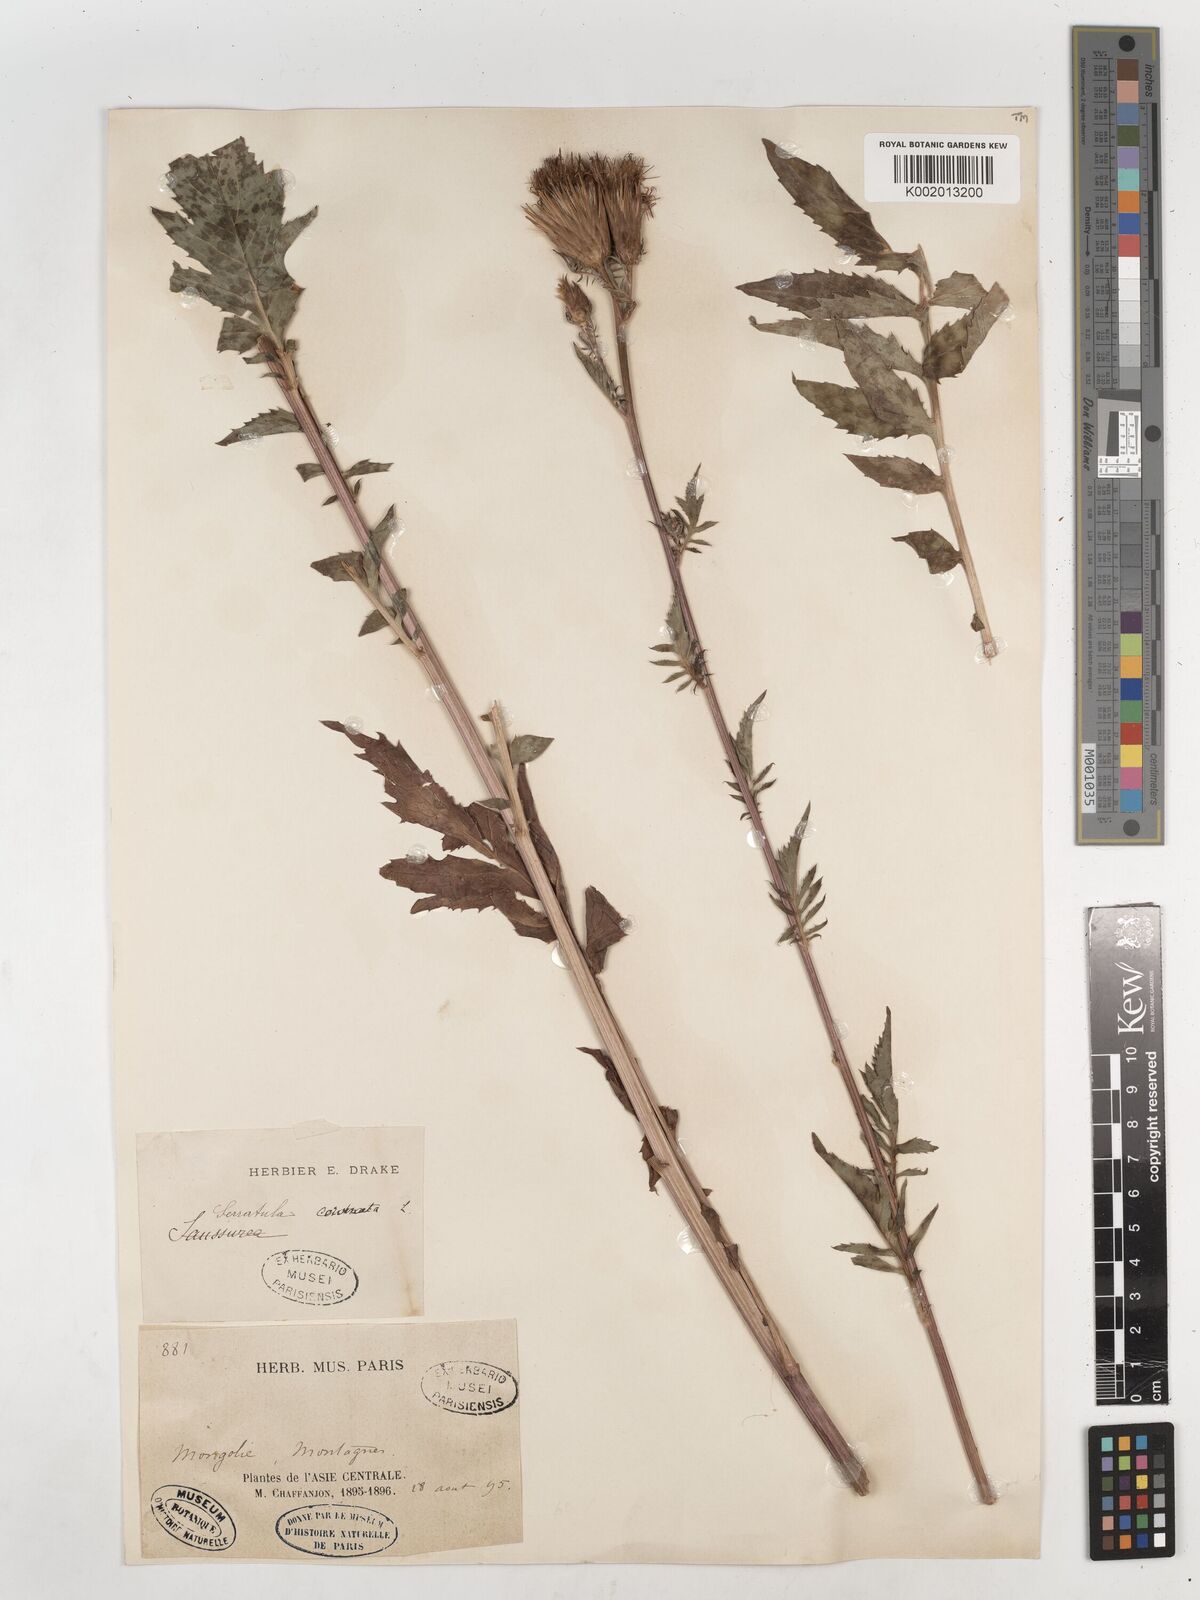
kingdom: Plantae
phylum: Tracheophyta
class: Magnoliopsida
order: Asterales
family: Asteraceae
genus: Serratula
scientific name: Serratula coronata
